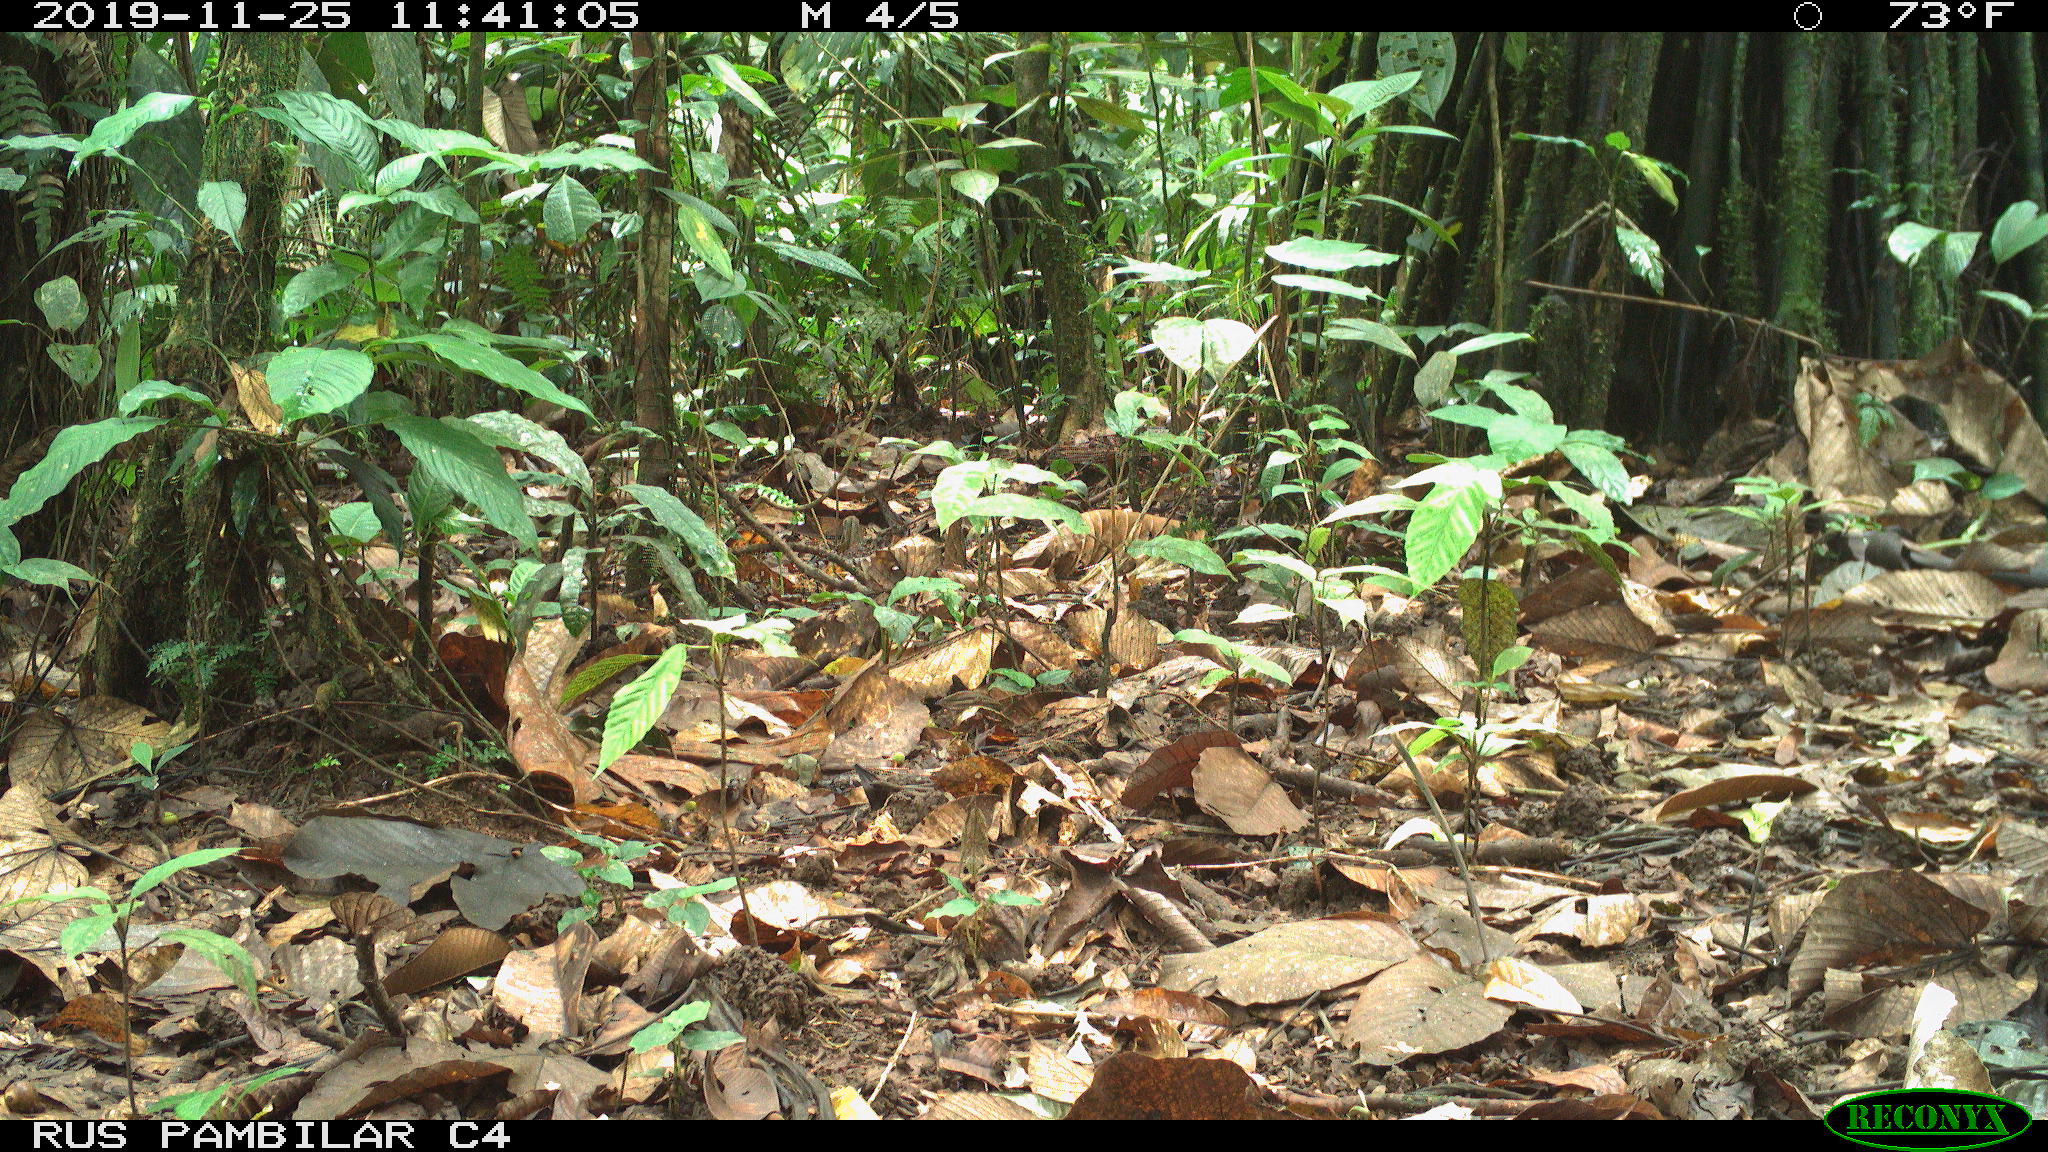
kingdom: Animalia
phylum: Chordata
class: Mammalia
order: Rodentia
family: Dasyproctidae
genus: Dasyprocta
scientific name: Dasyprocta punctata
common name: Central american agouti
